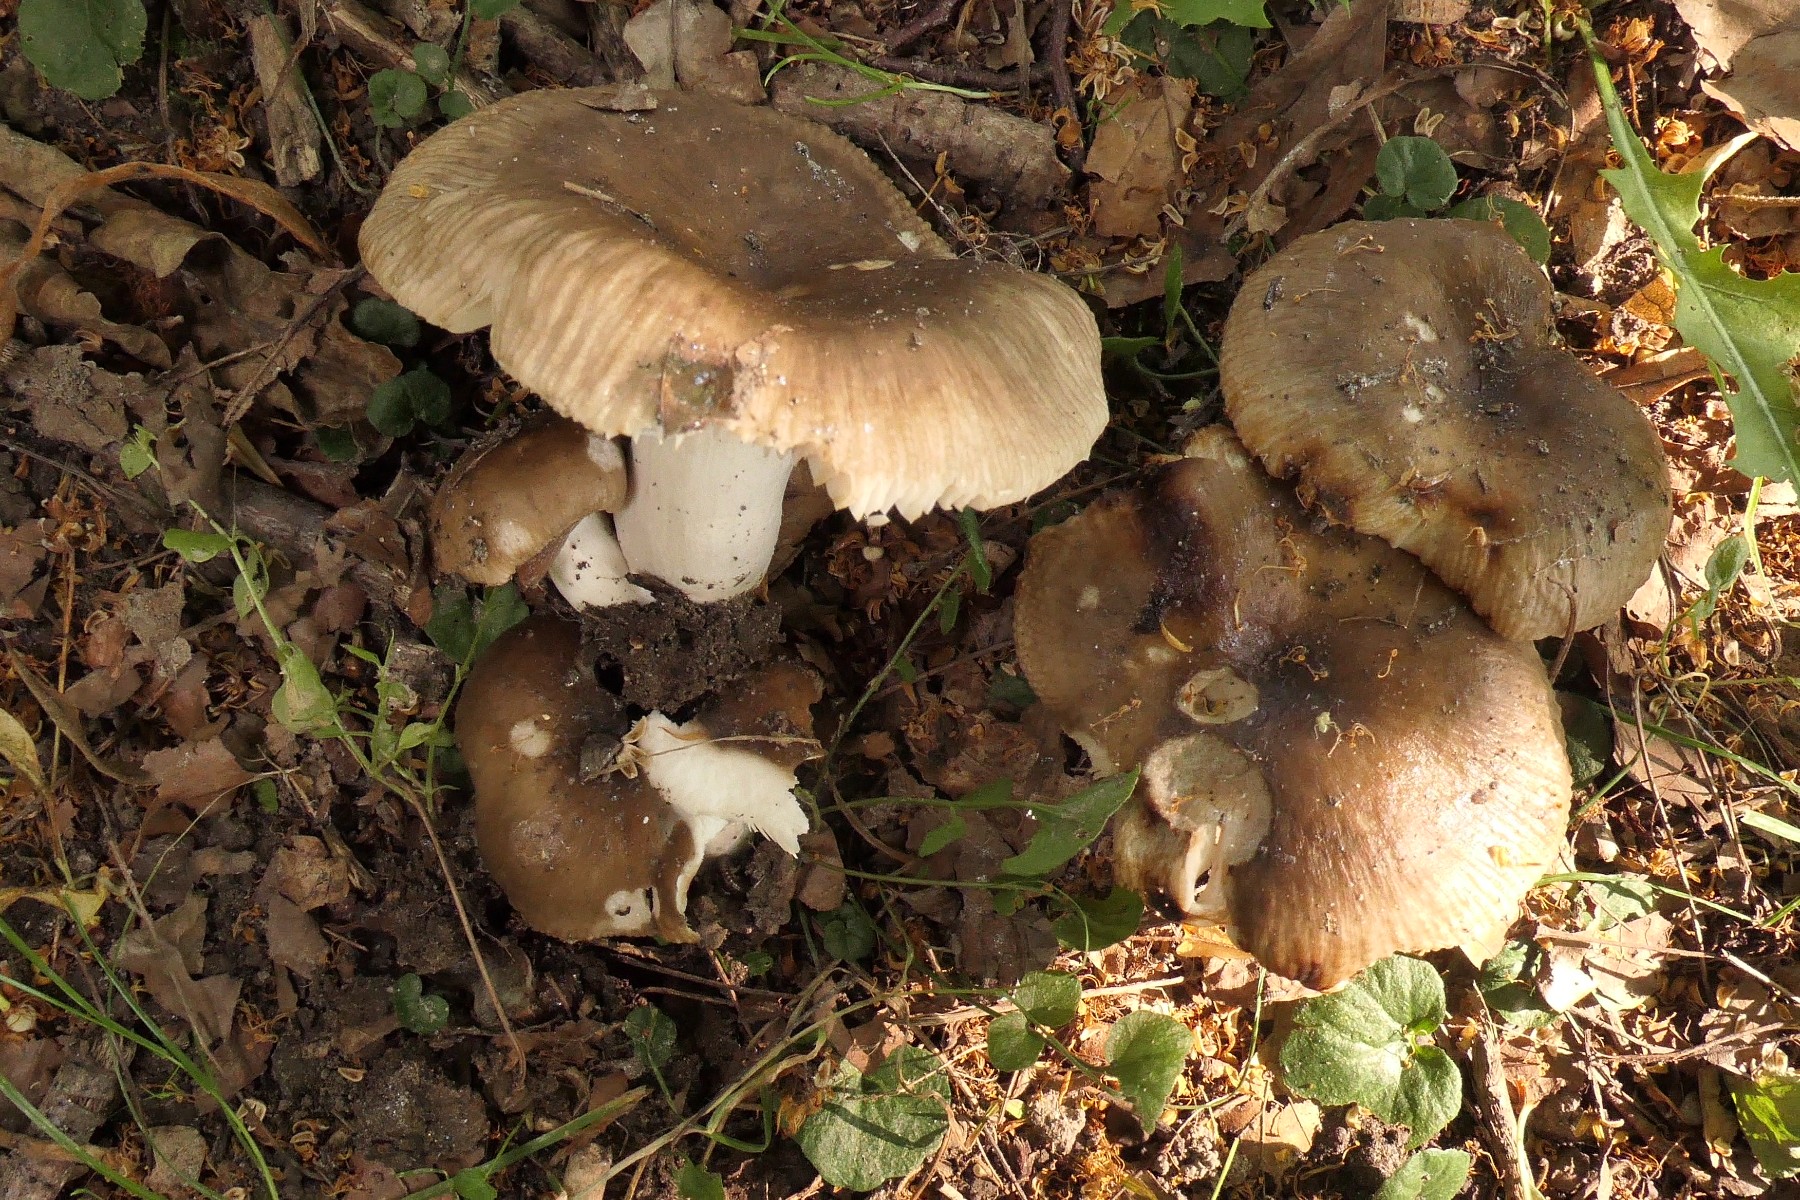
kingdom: Fungi
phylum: Basidiomycota
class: Agaricomycetes
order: Russulales
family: Russulaceae
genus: Russula
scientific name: Russula sororia
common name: brun kam-skørhat
